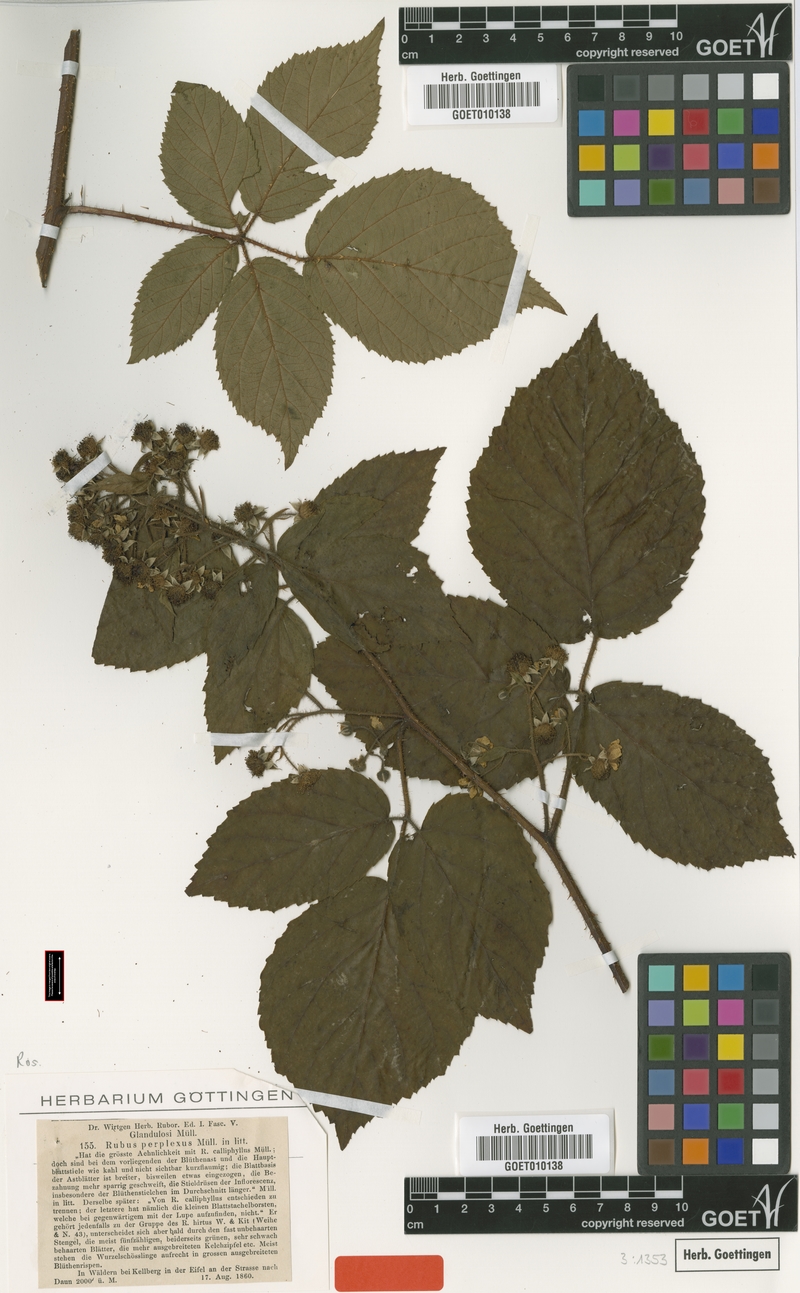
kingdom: Plantae
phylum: Tracheophyta
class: Magnoliopsida
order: Rosales
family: Rosaceae
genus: Rubus
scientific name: Rubus perplexus
